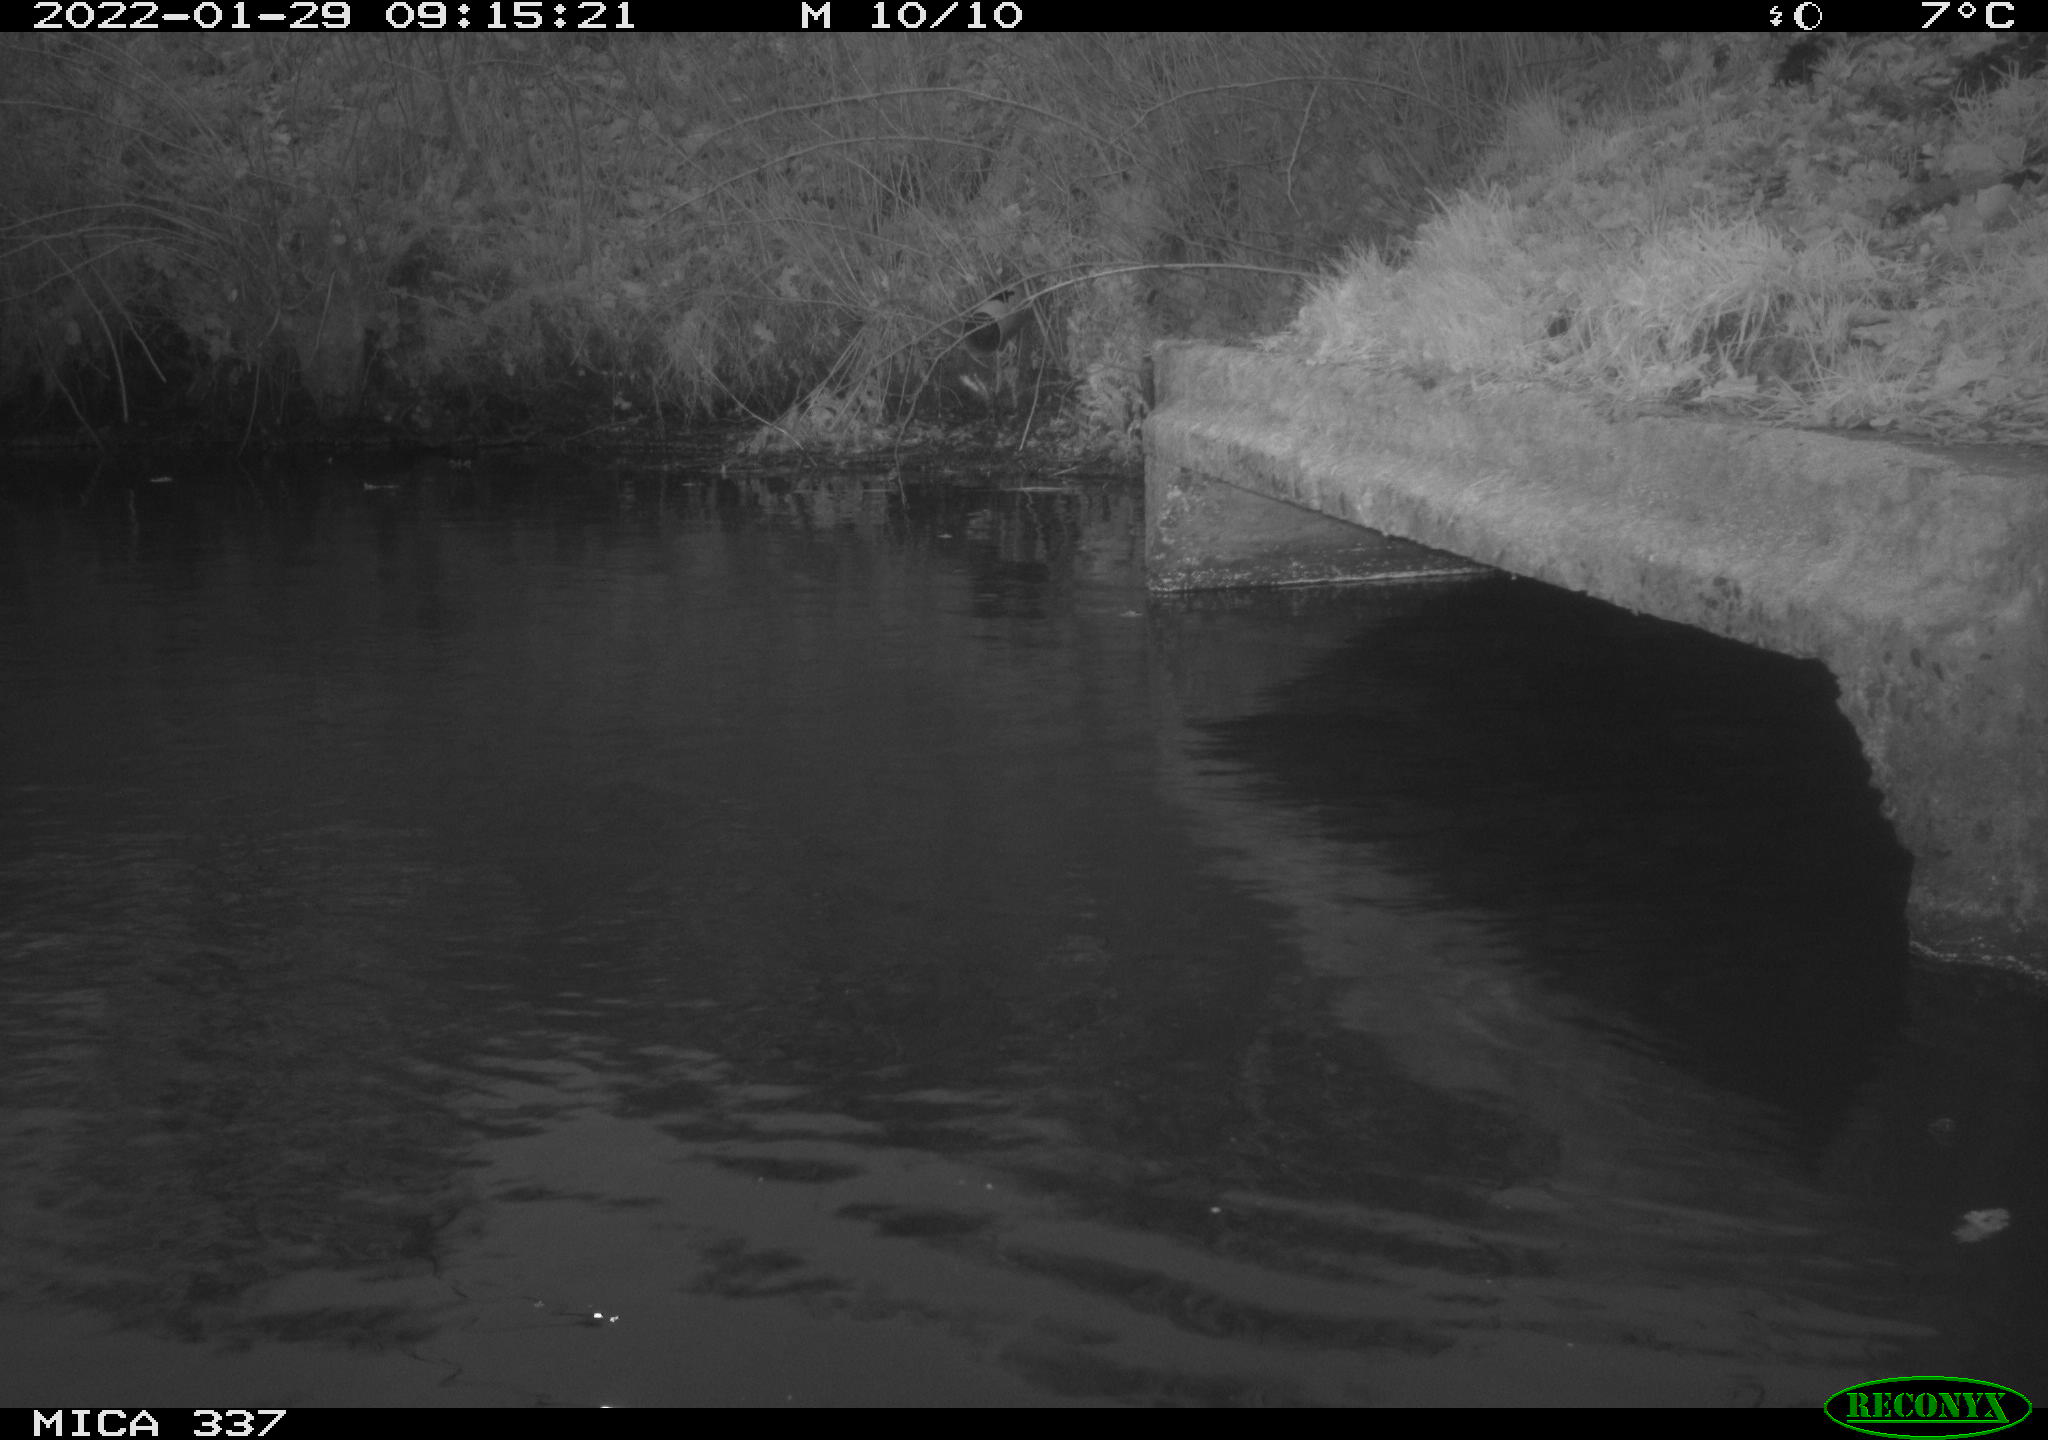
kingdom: Animalia
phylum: Chordata
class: Aves
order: Anseriformes
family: Anatidae
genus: Anas
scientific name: Anas platyrhynchos
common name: Mallard
